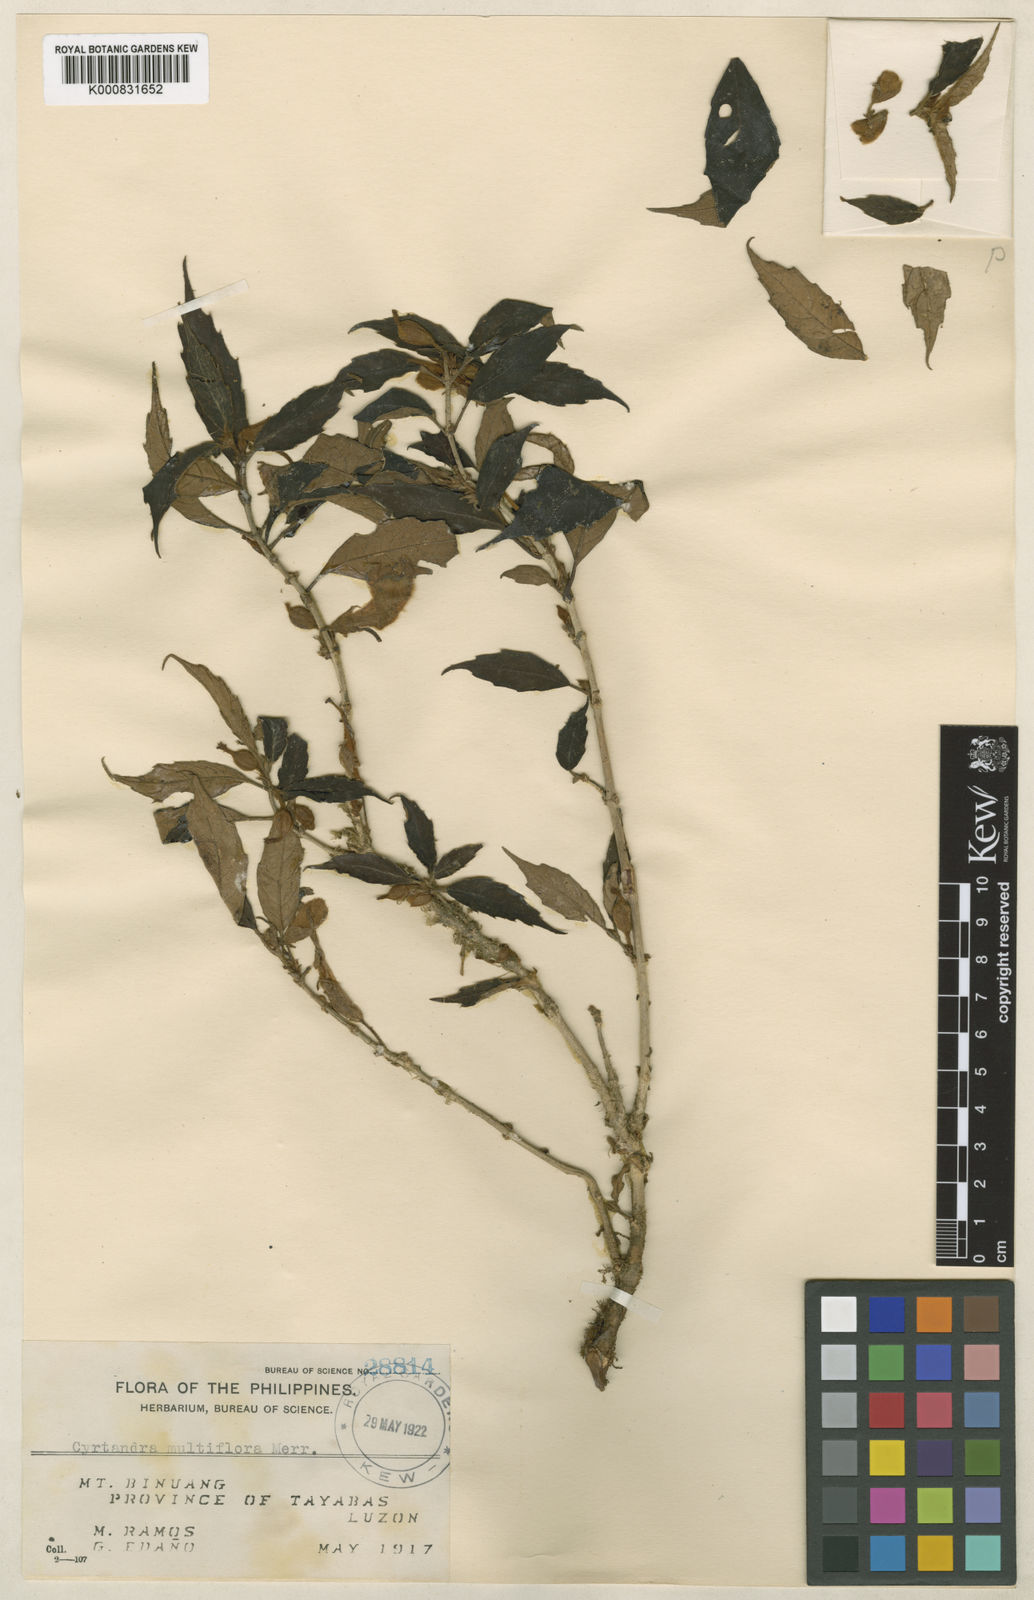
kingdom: Plantae
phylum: Tracheophyta
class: Magnoliopsida
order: Lamiales
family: Gesneriaceae
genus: Cyrtandra
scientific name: Cyrtandra
